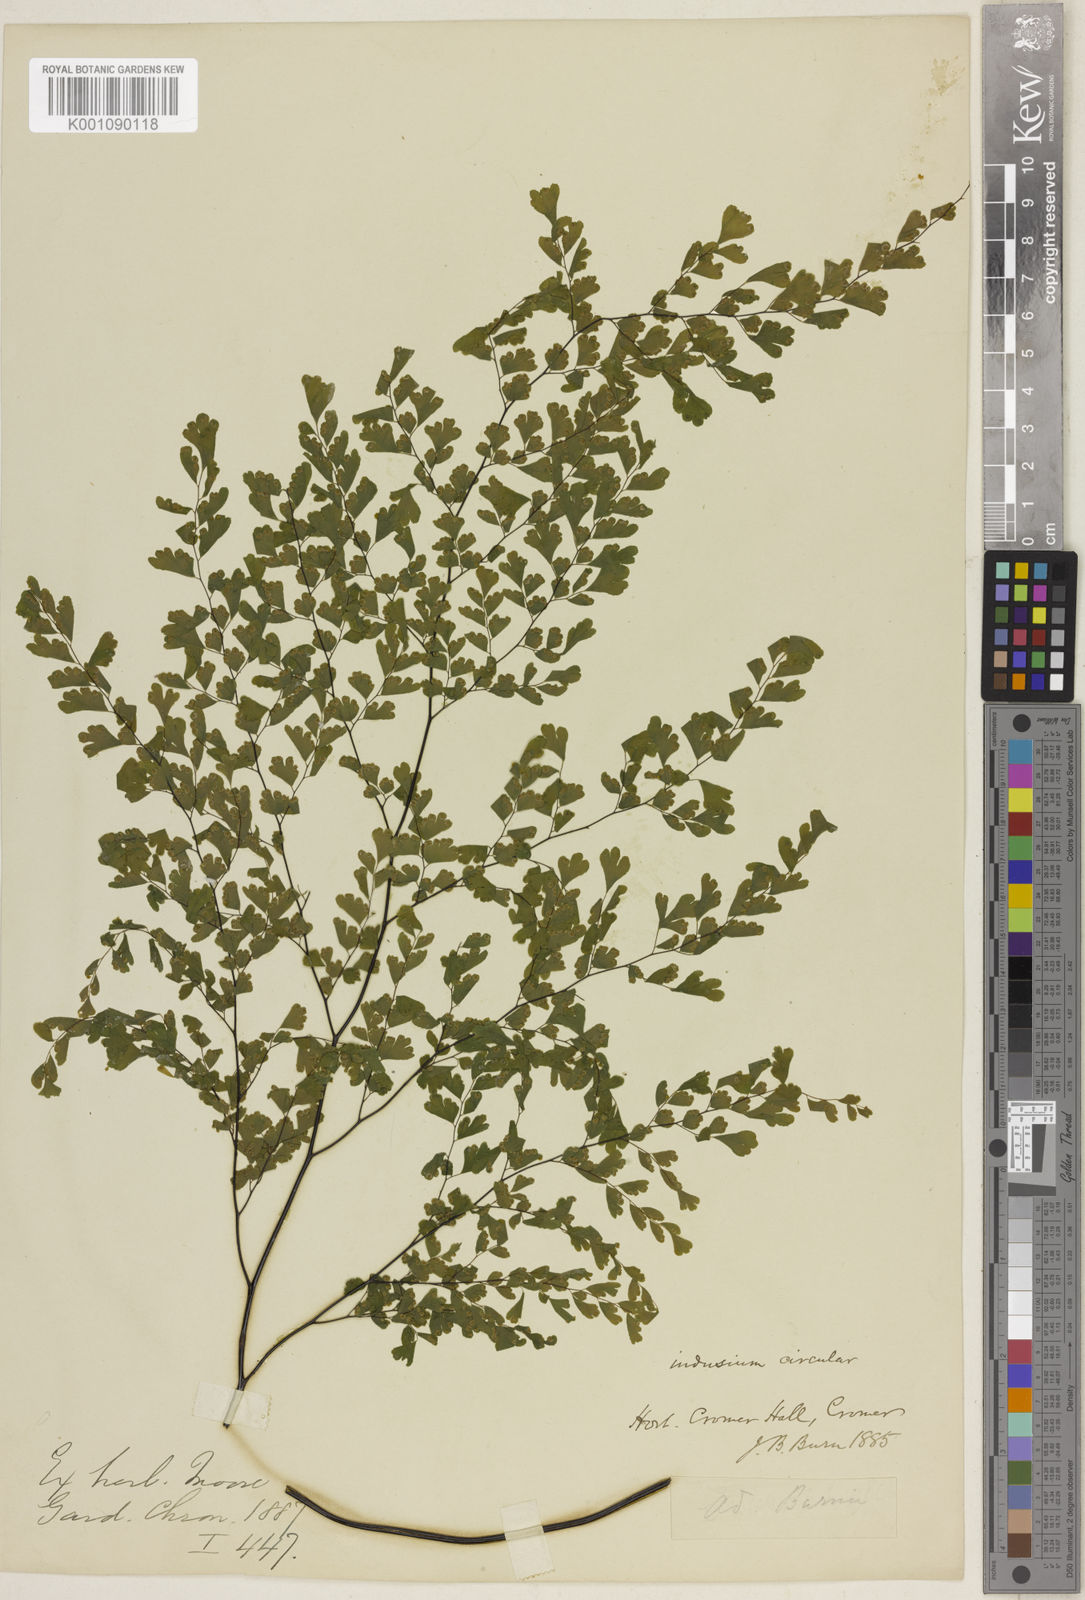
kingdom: Plantae
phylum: Tracheophyta
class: Polypodiopsida
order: Polypodiales
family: Pteridaceae
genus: Adiantum
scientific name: Adiantum raddianum
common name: Delta maidenhair fern
